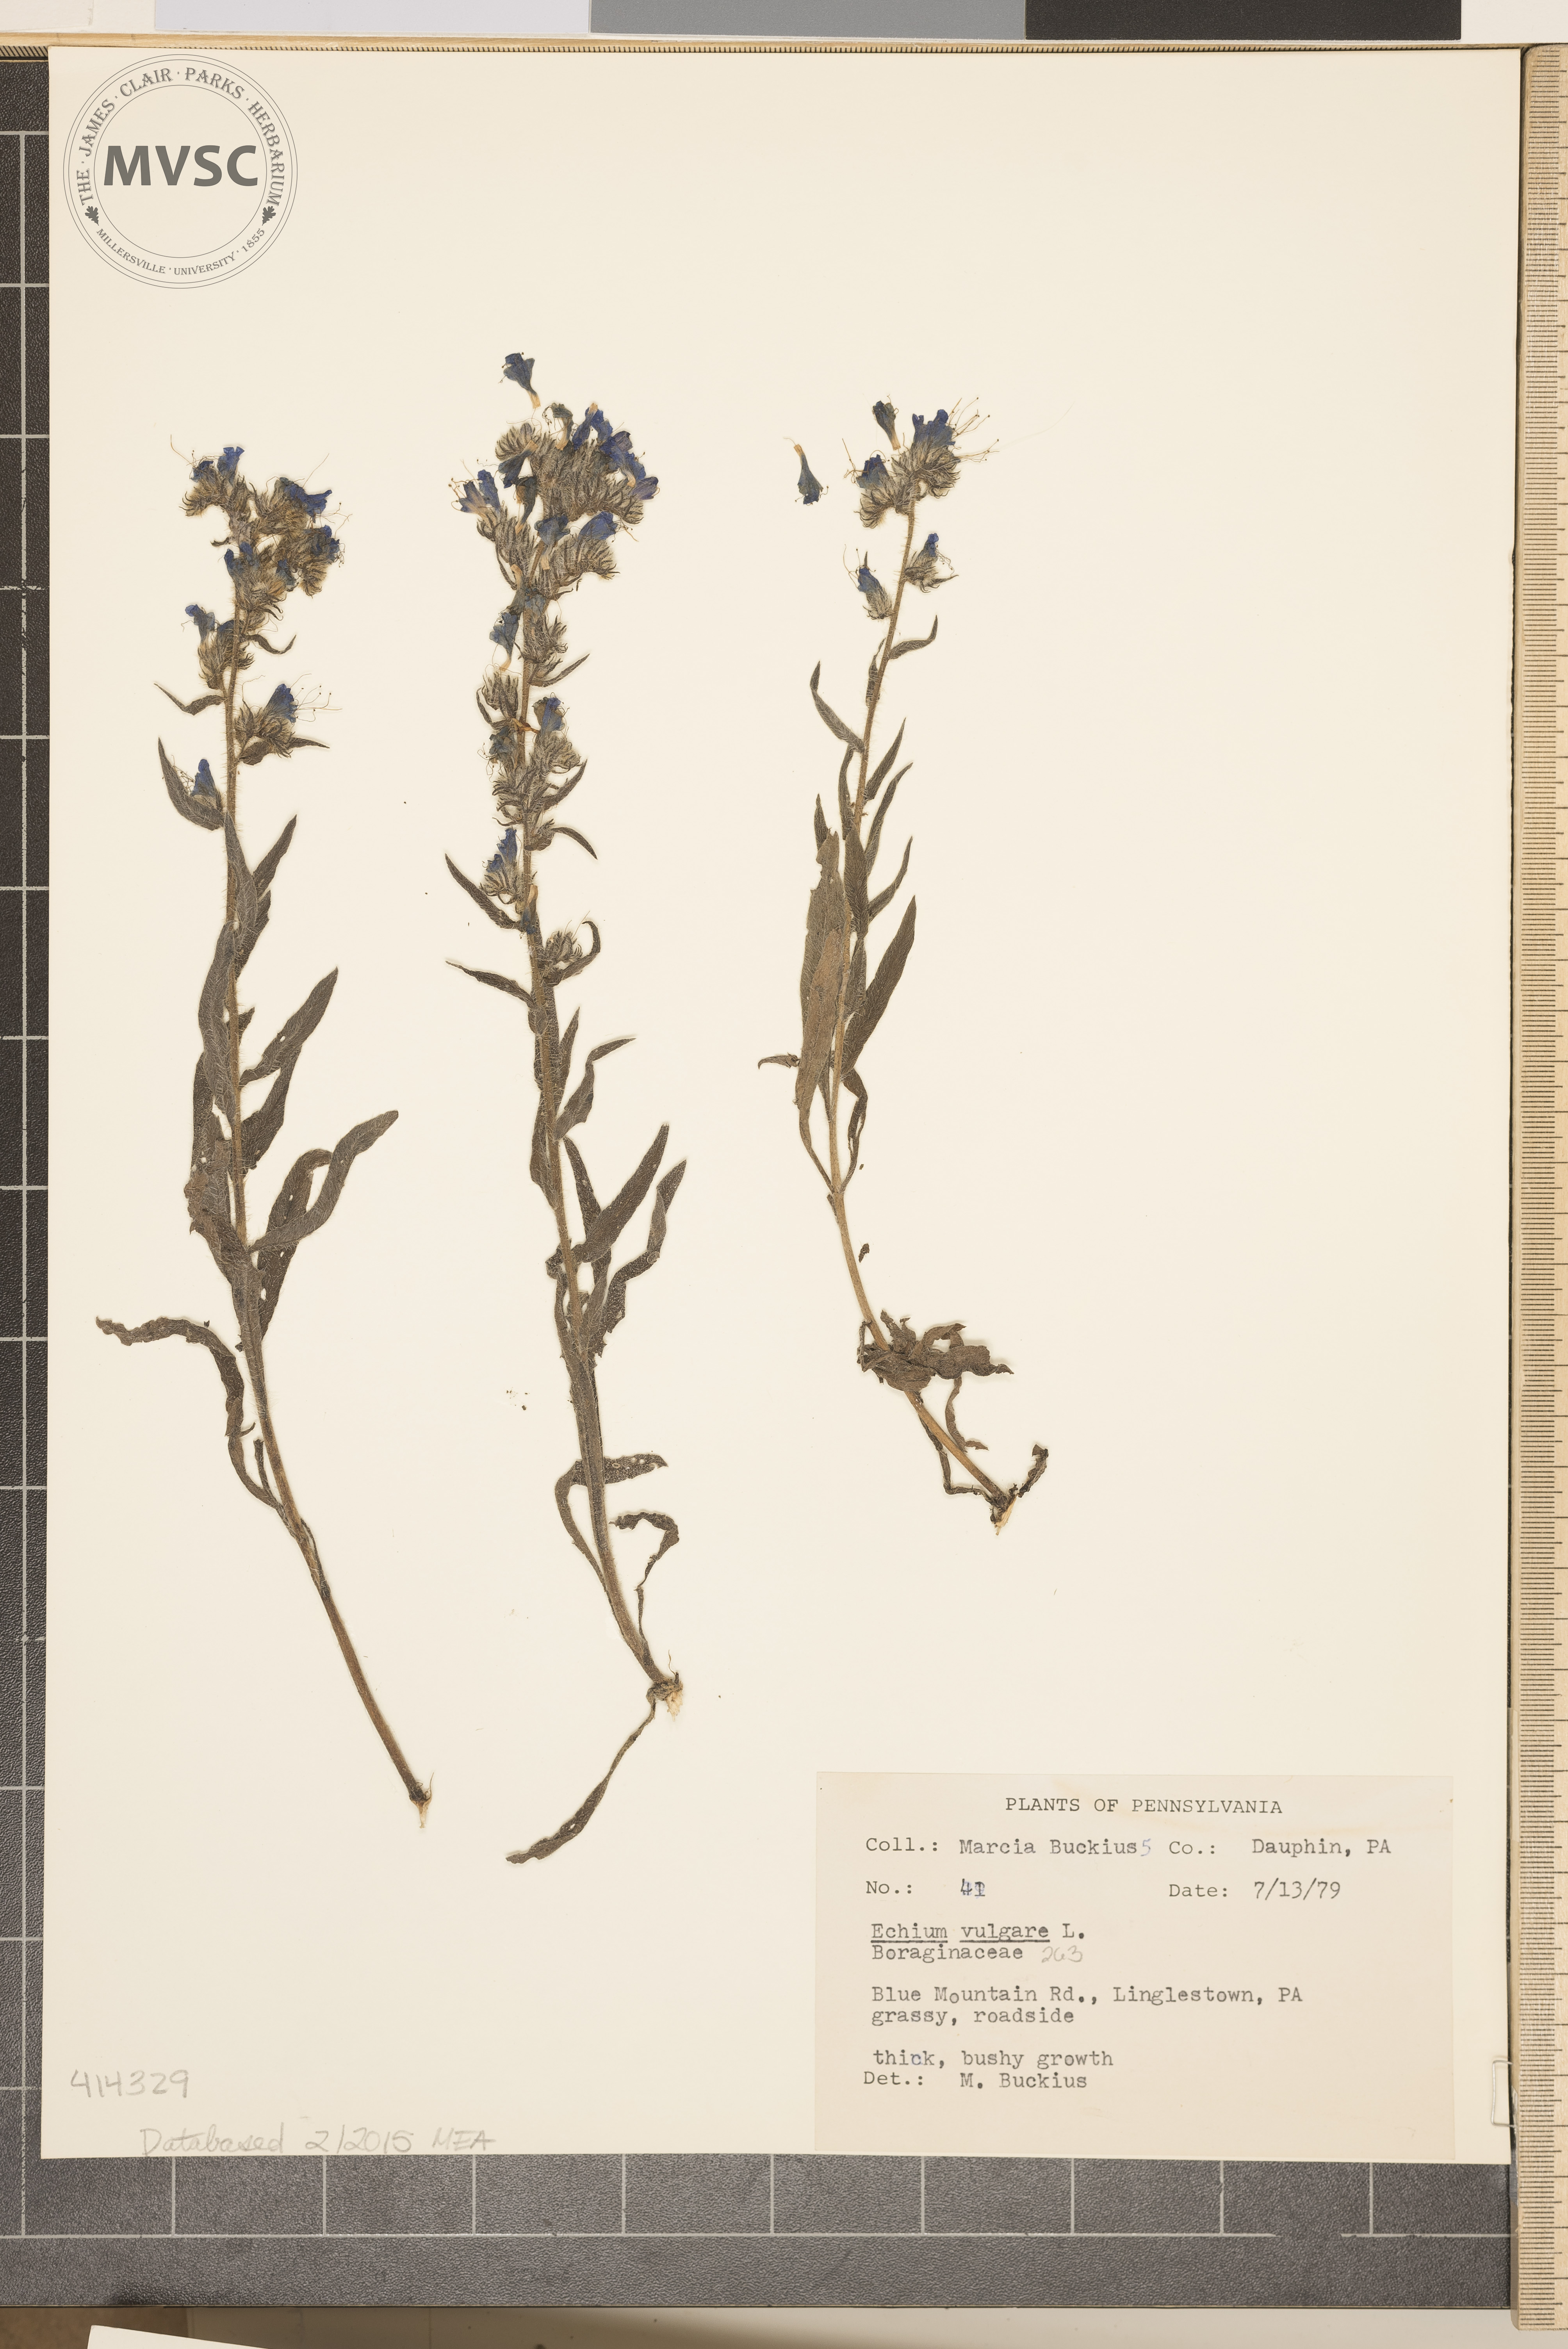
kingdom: Plantae
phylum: Tracheophyta
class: Magnoliopsida
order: Boraginales
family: Boraginaceae
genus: Echium
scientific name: Echium vulgare
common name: Viper's Bugloss
